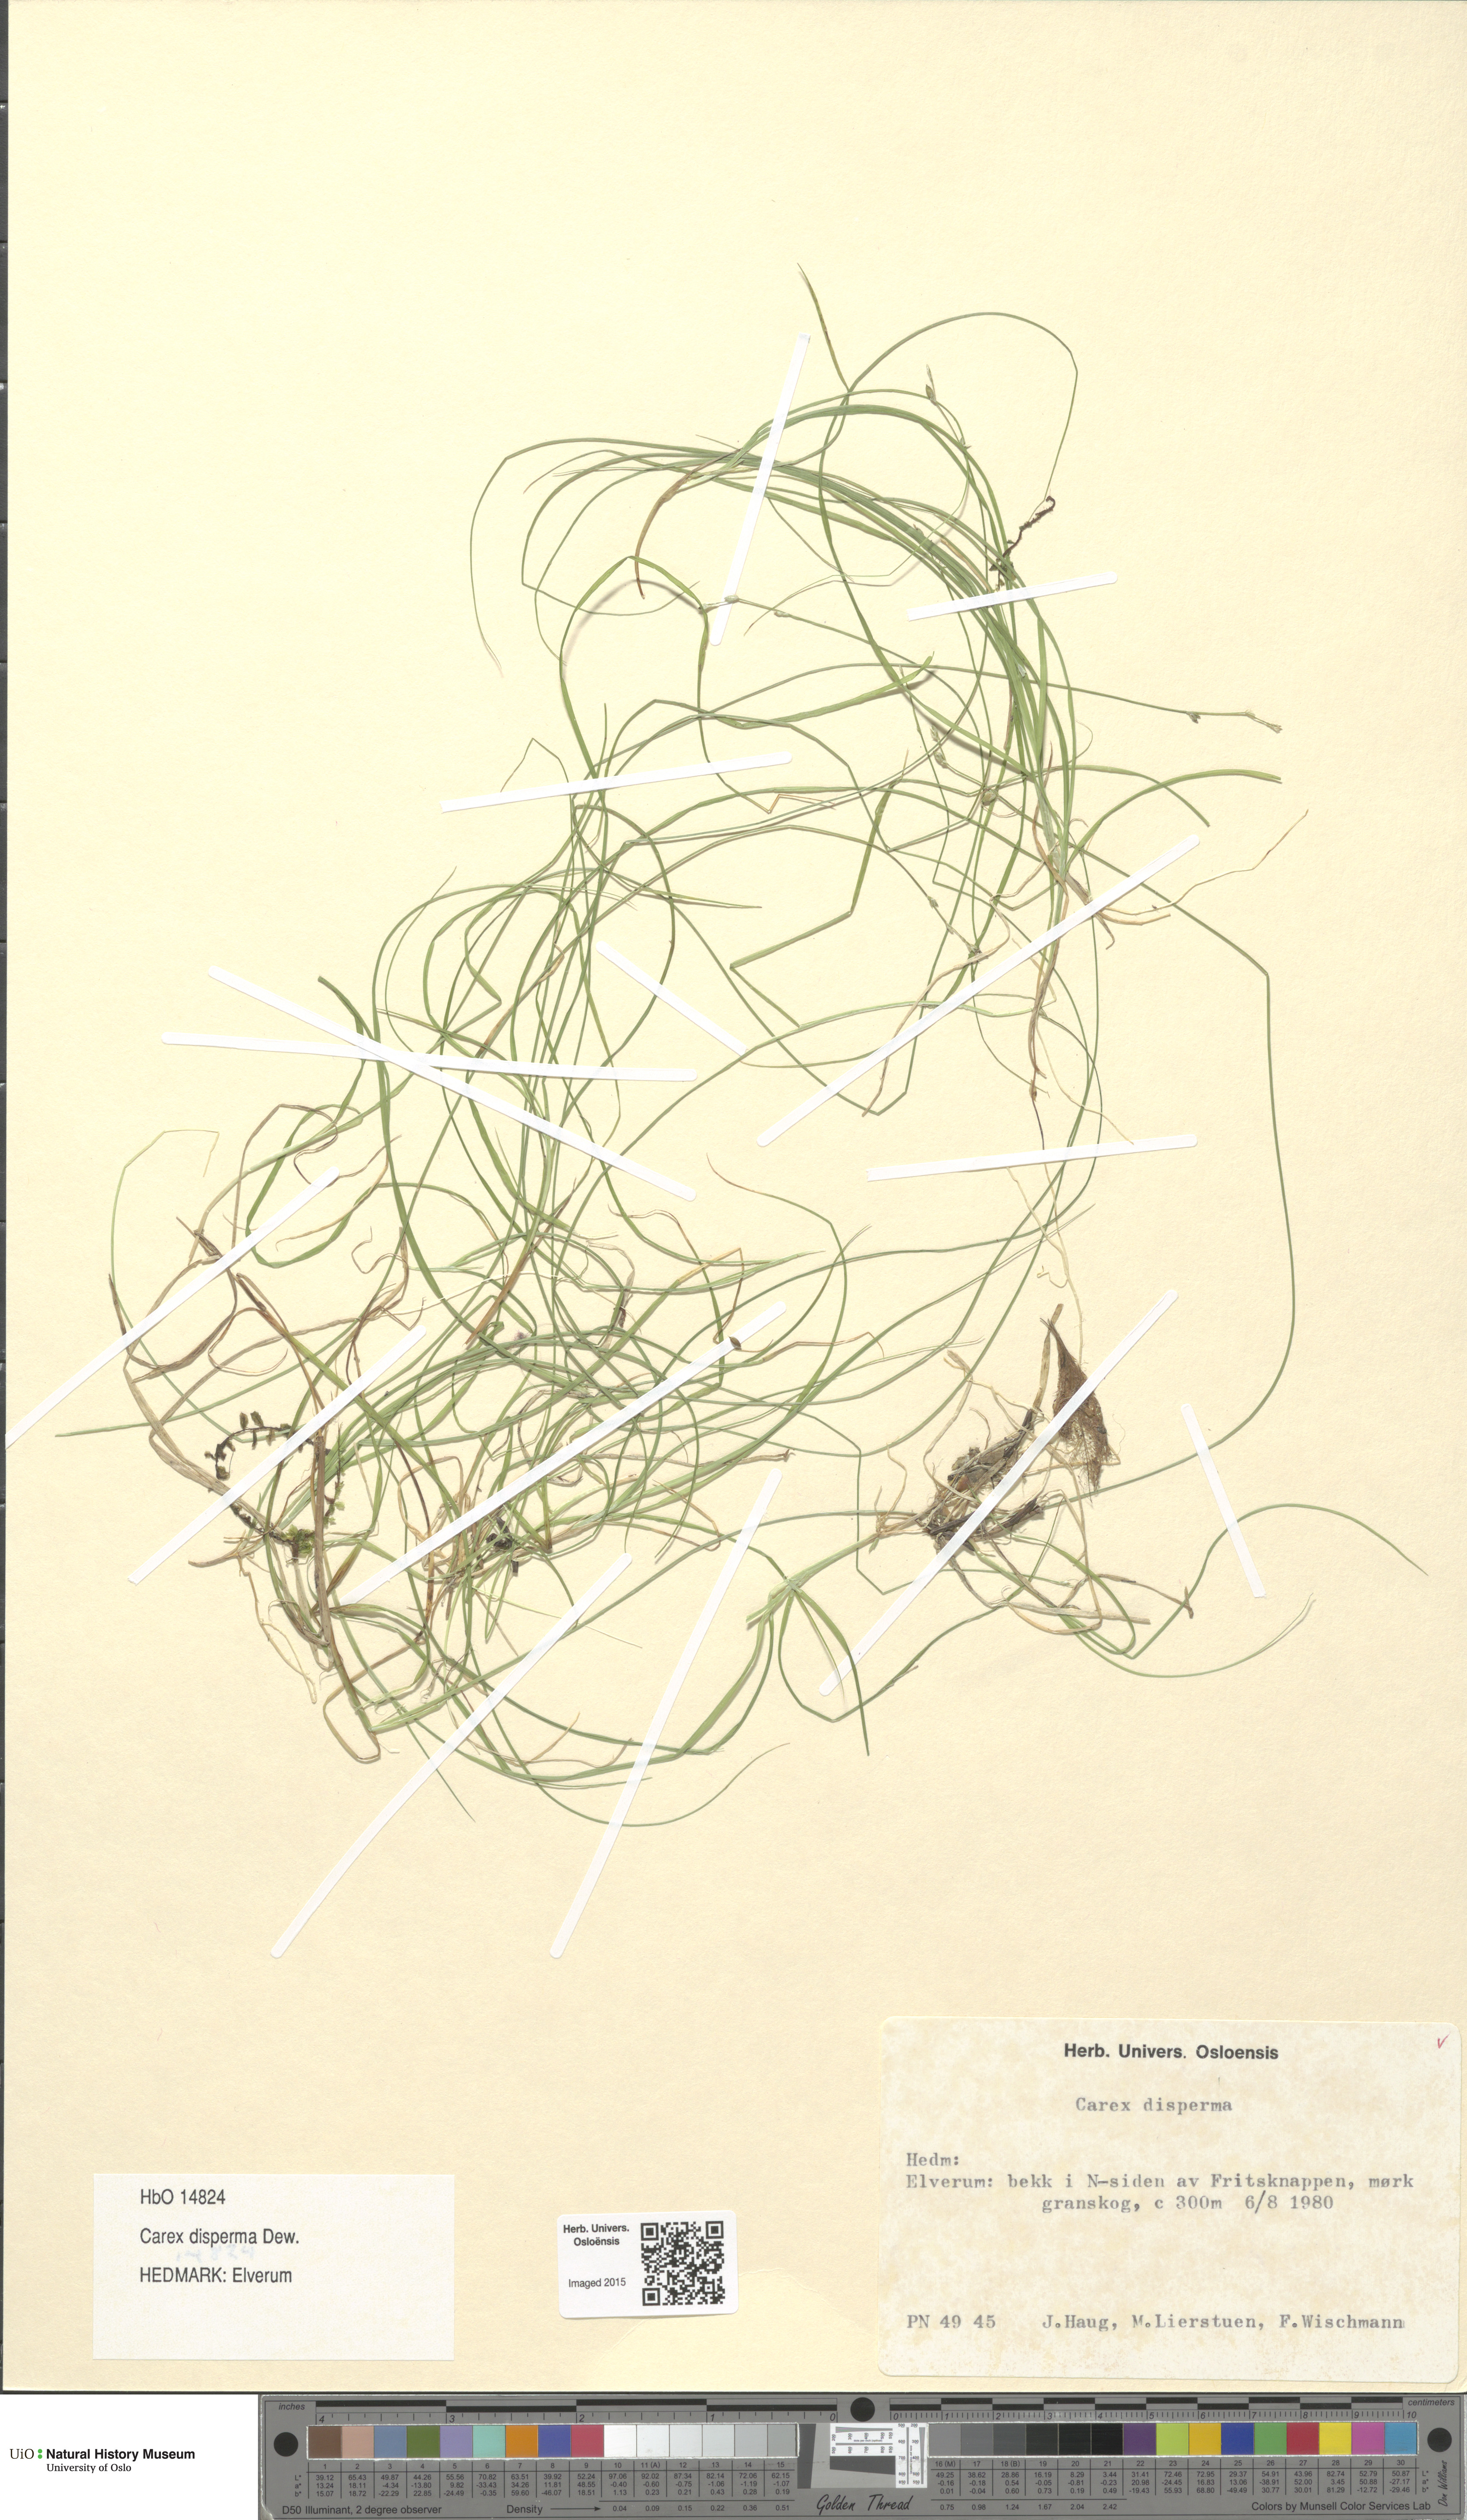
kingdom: Plantae
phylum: Tracheophyta
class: Liliopsida
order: Poales
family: Cyperaceae
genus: Carex
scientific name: Carex disperma
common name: Short-leaved sedge
